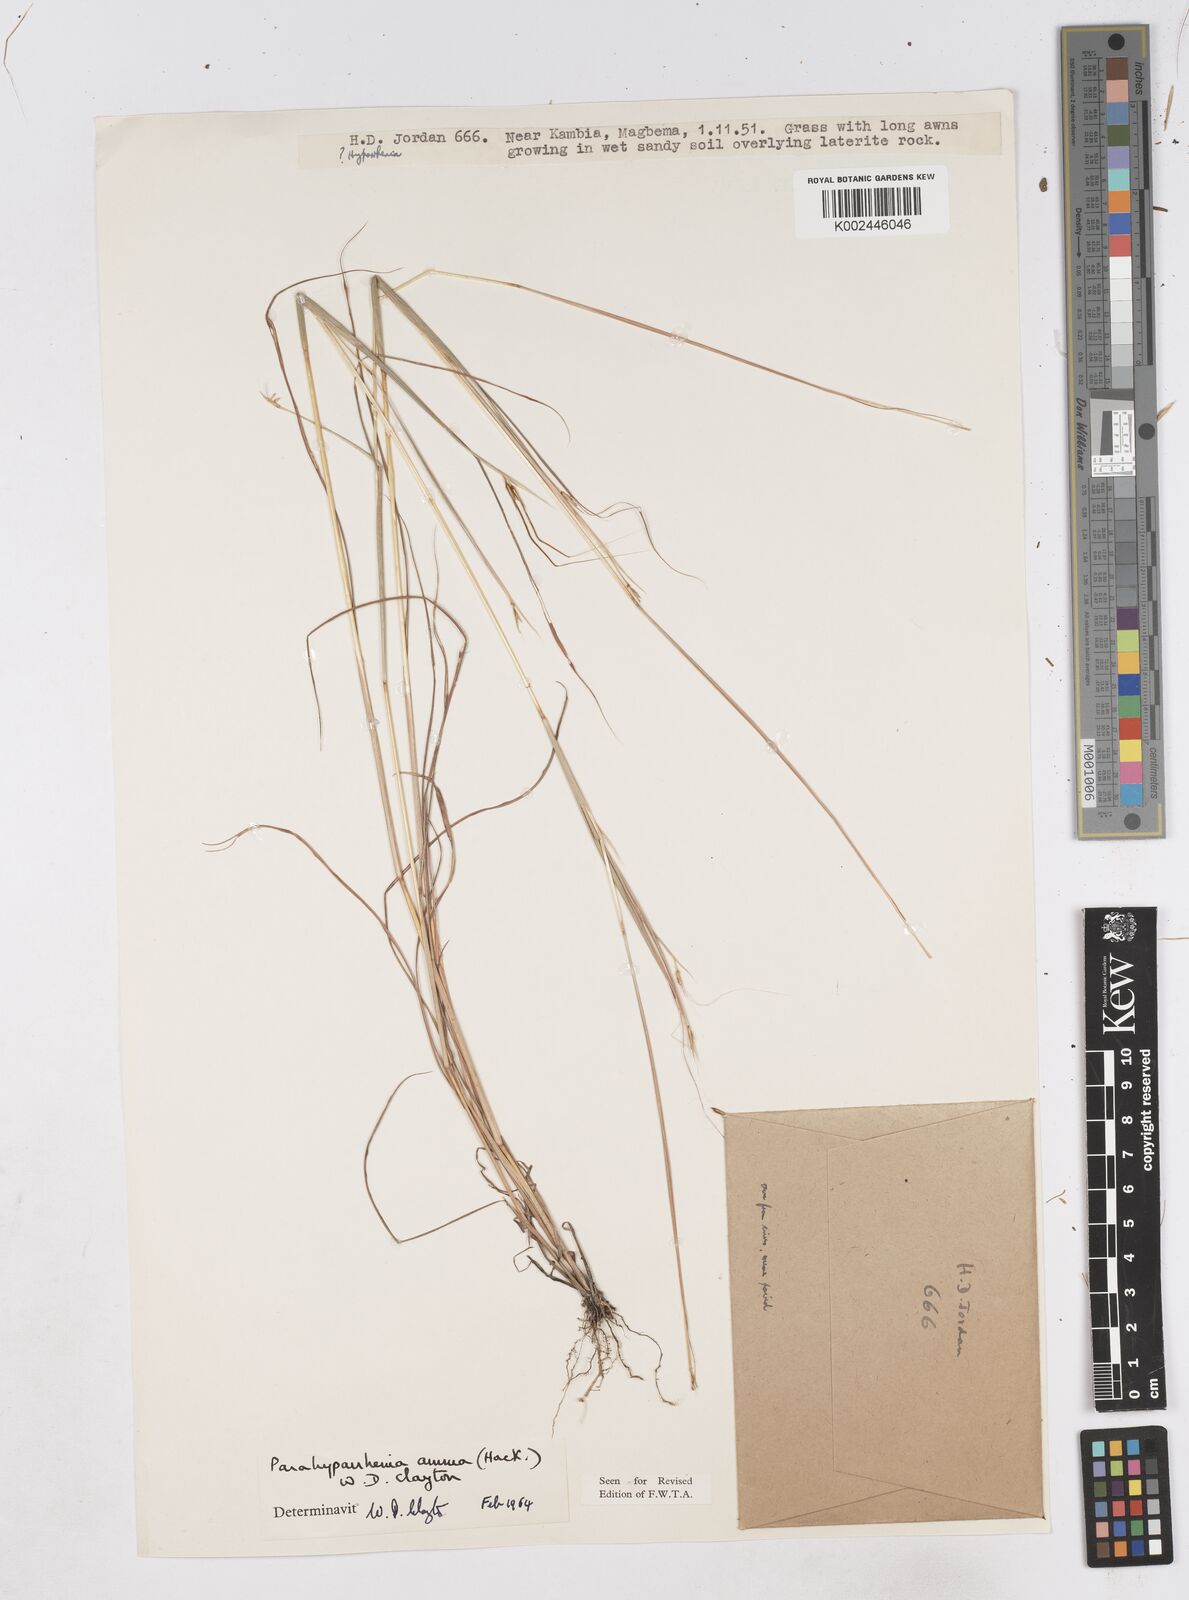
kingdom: Plantae
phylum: Tracheophyta
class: Liliopsida
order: Poales
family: Poaceae
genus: Parahyparrhenia
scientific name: Parahyparrhenia annua
